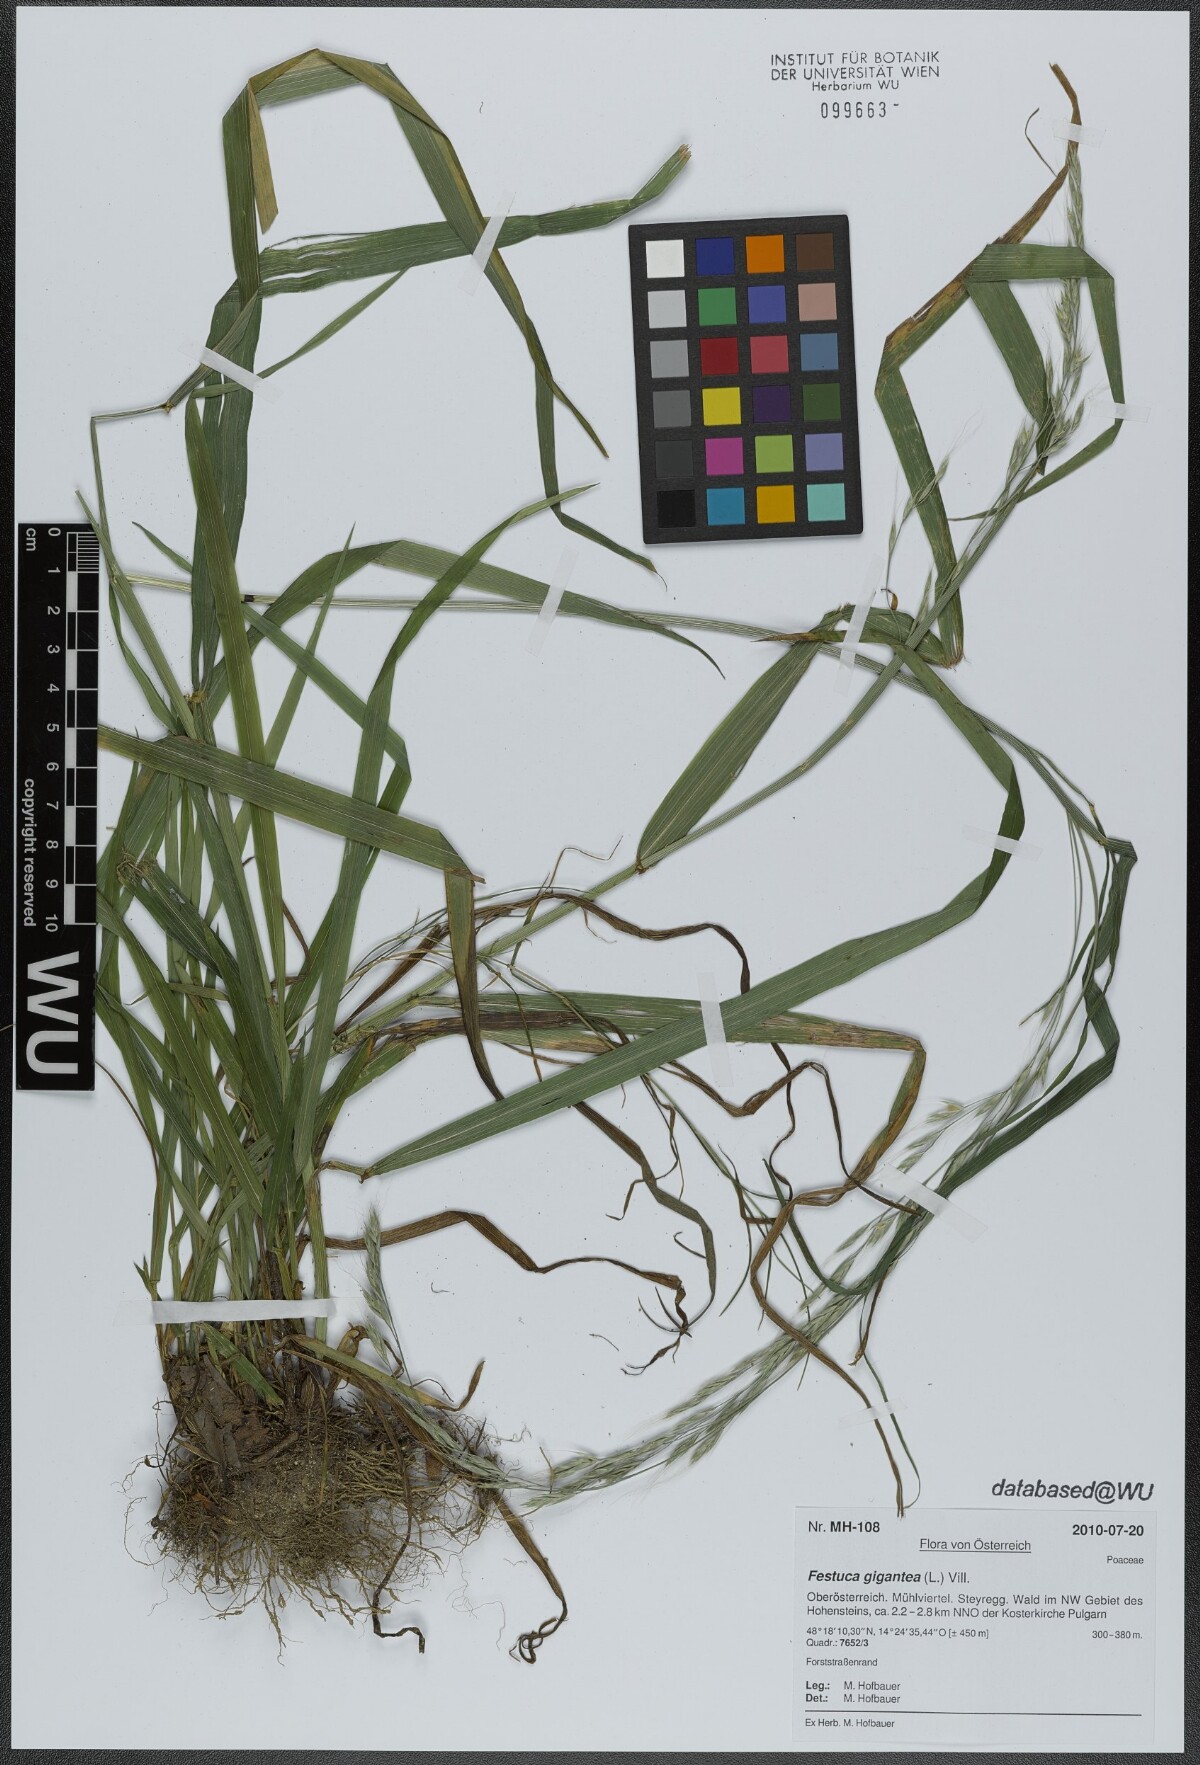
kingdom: Plantae
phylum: Tracheophyta
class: Liliopsida
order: Poales
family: Poaceae
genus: Lolium
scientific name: Lolium giganteum
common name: Giant fescue
